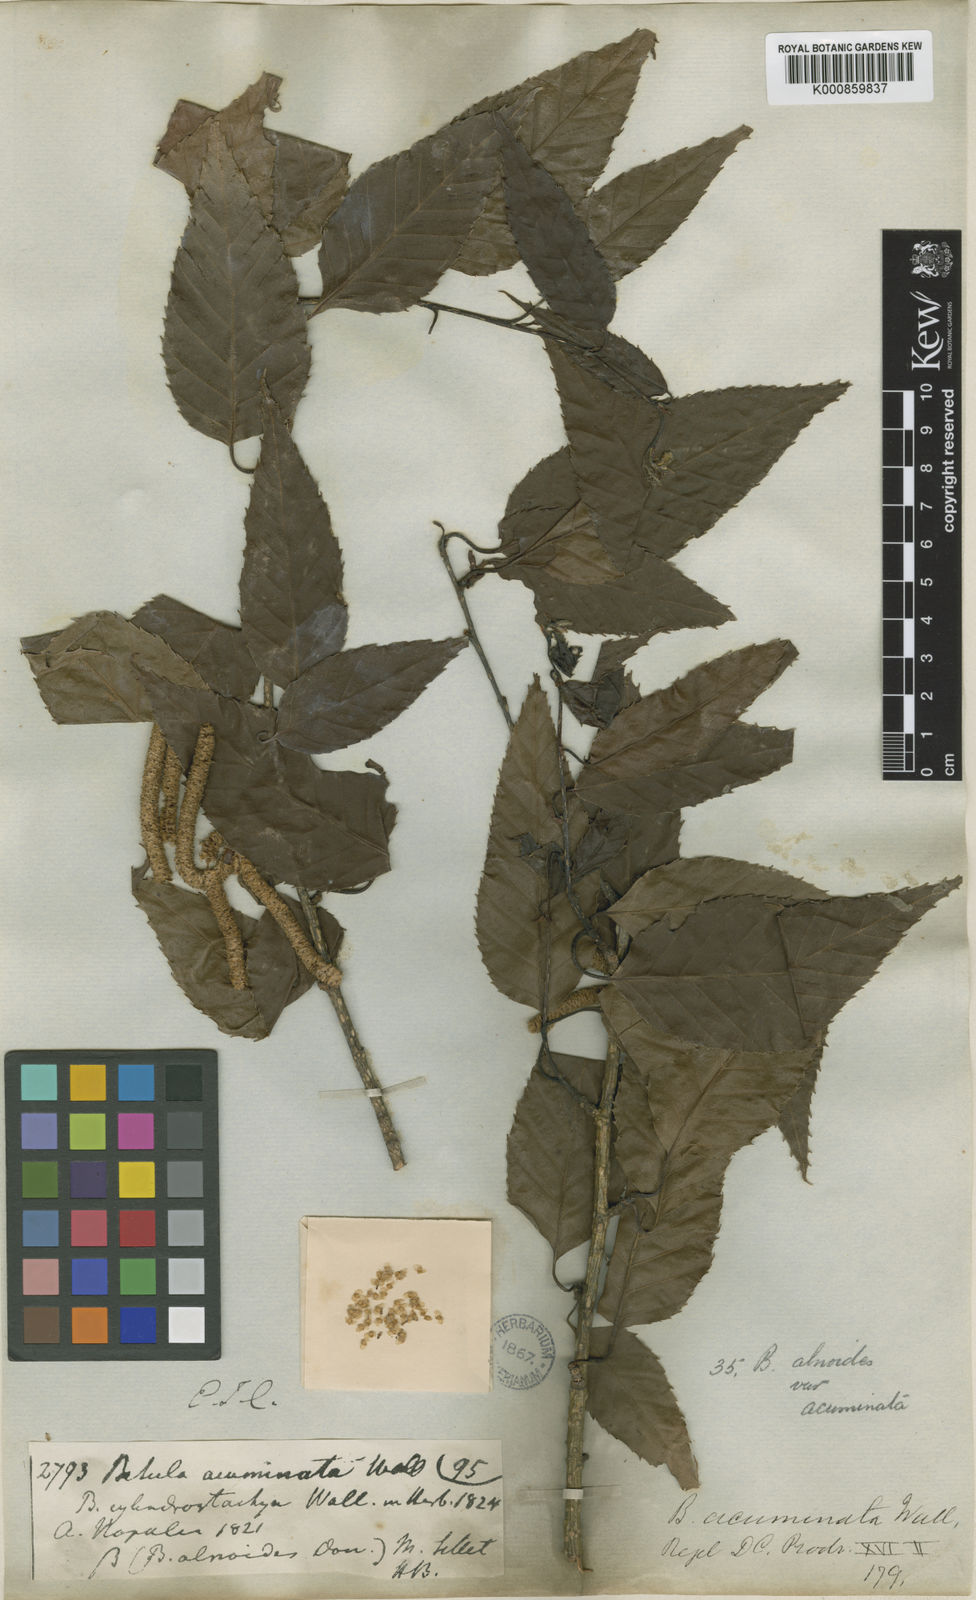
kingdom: Plantae
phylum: Tracheophyta
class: Magnoliopsida
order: Fagales
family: Betulaceae
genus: Betula
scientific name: Betula alnoides
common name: Indian birch
